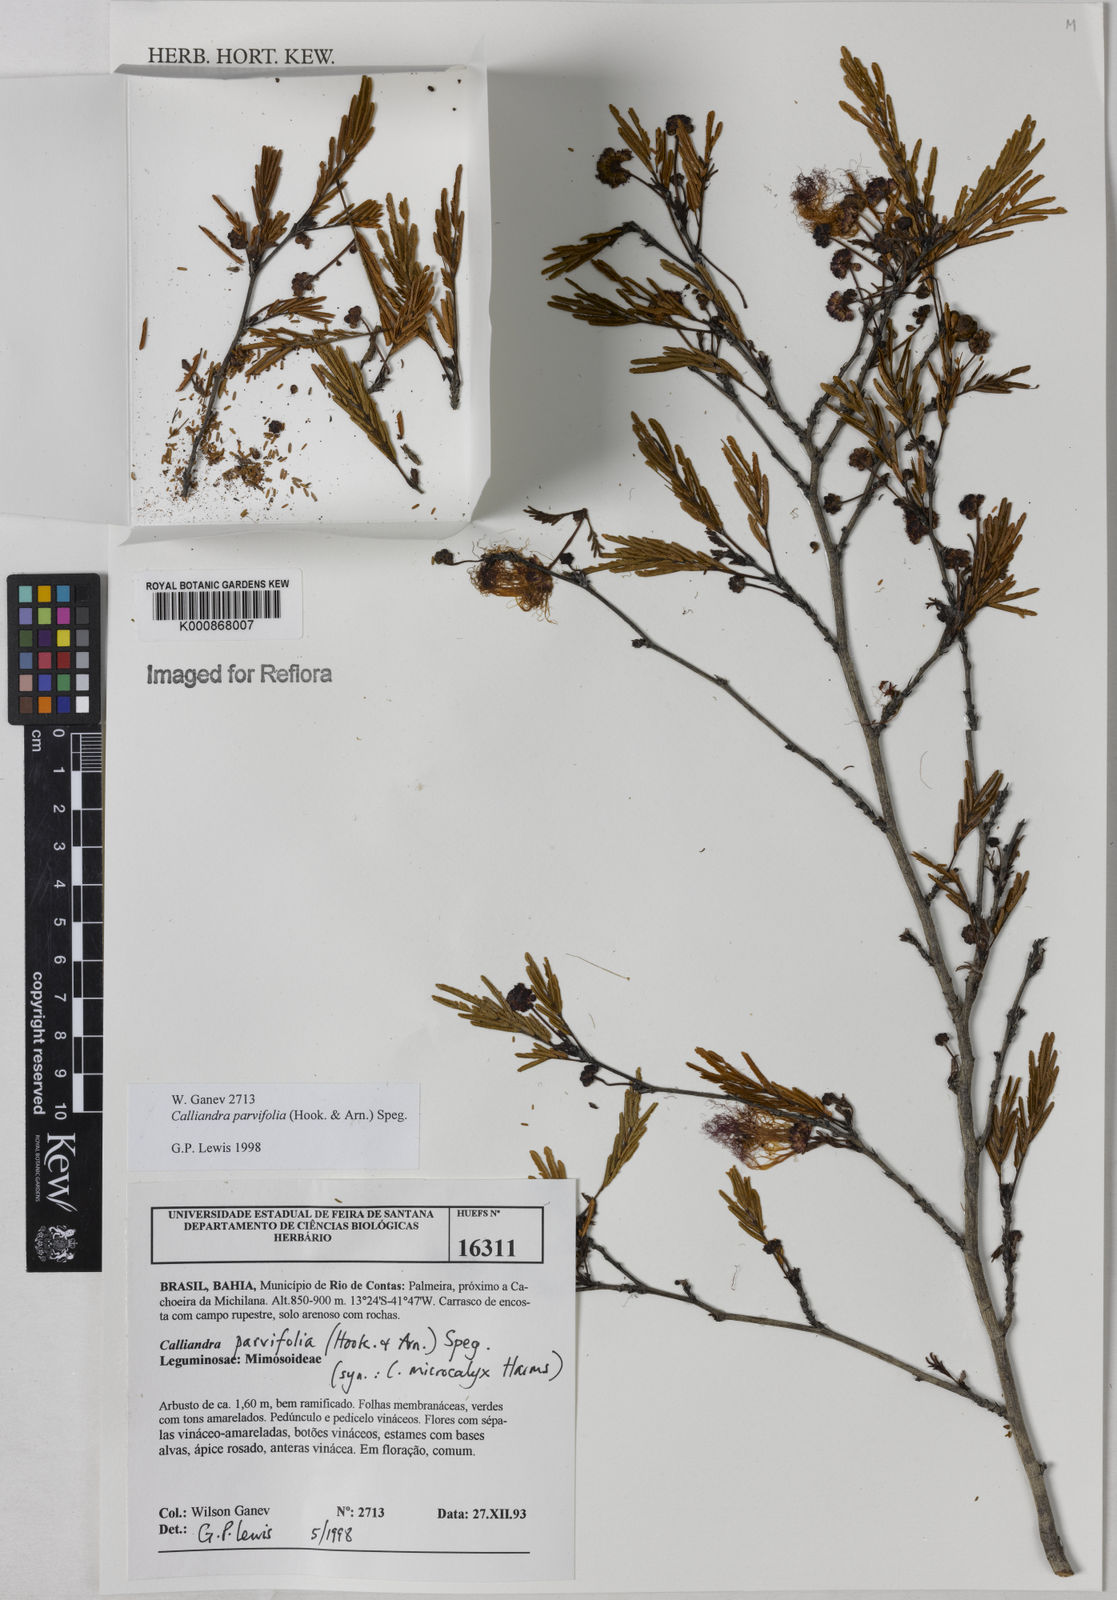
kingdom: Plantae
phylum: Tracheophyta
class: Magnoliopsida
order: Fabales
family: Fabaceae
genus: Calliandra
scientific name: Calliandra parvifolia
